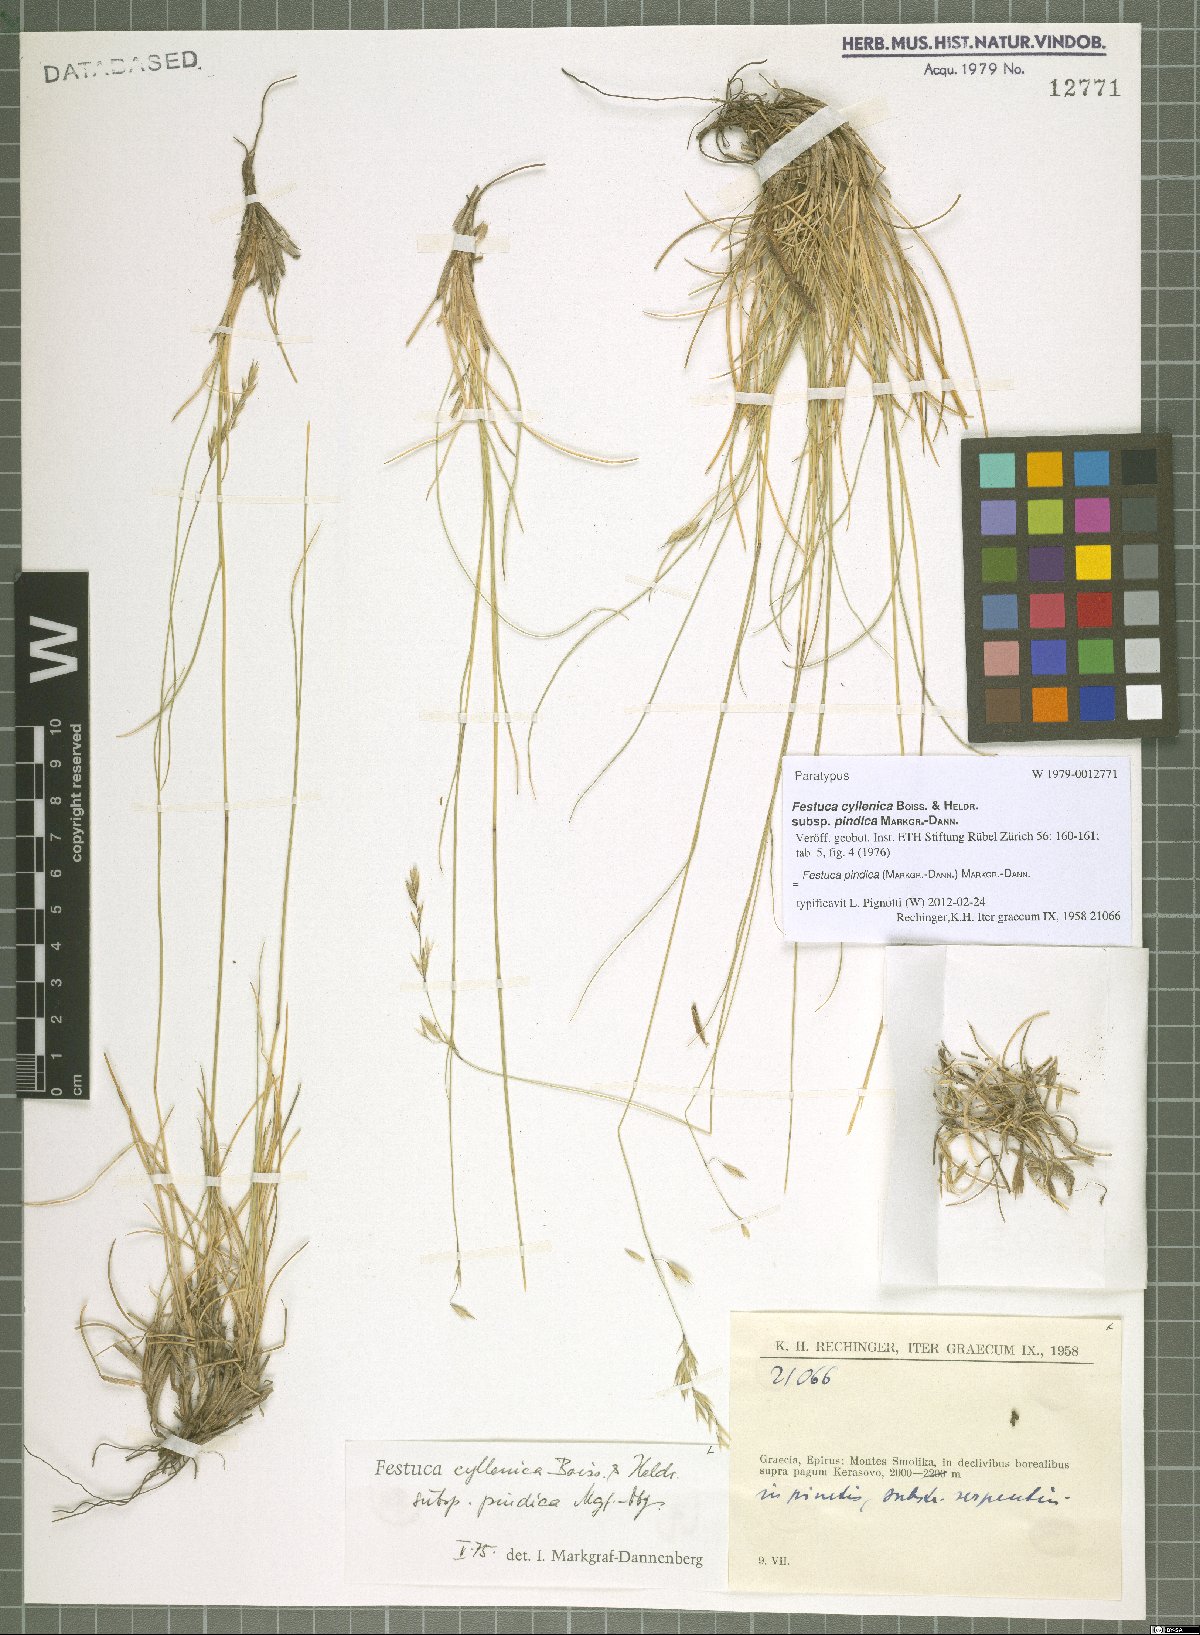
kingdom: Plantae
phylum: Tracheophyta
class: Liliopsida
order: Poales
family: Poaceae
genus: Festuca
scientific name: Festuca pindica
